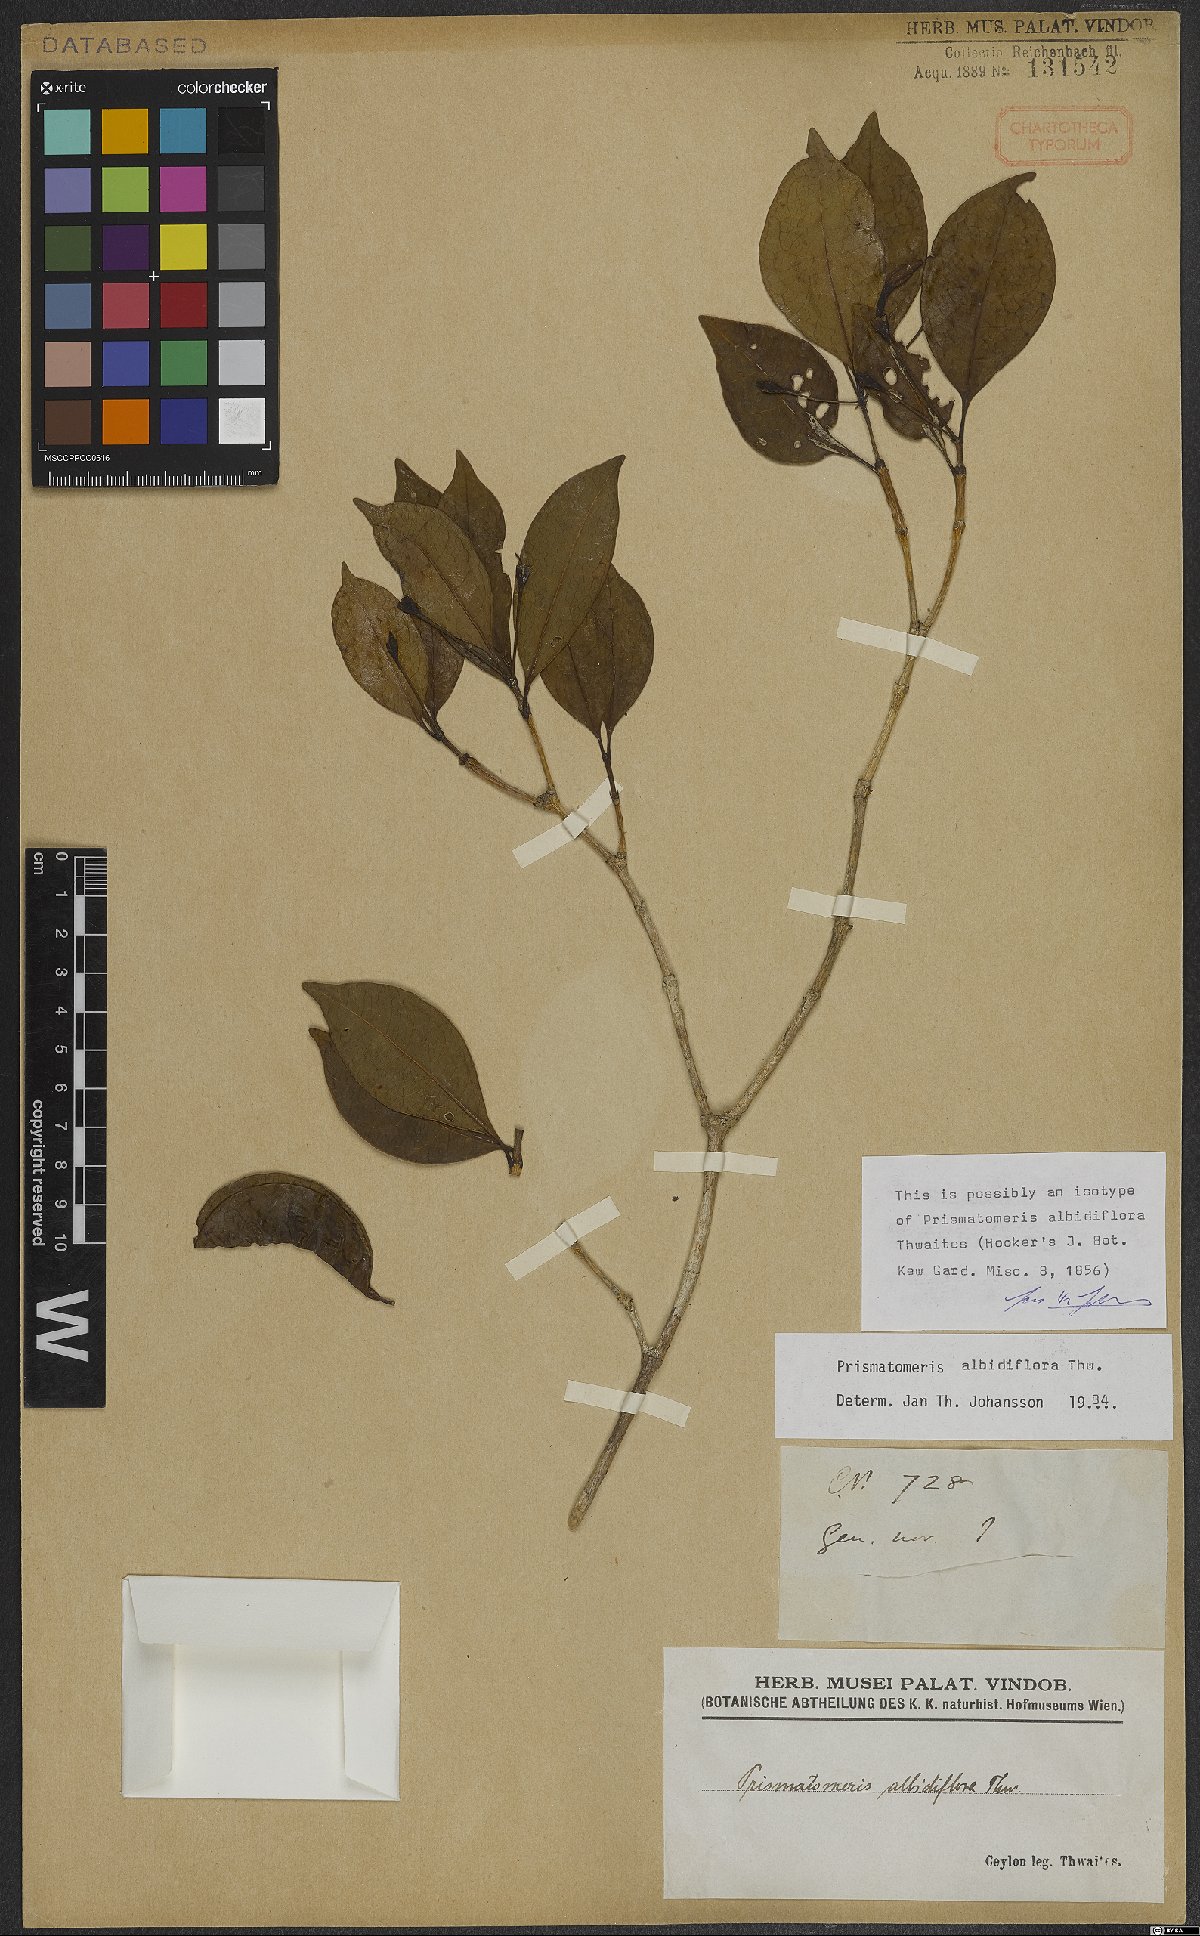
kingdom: Plantae
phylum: Tracheophyta
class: Magnoliopsida
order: Gentianales
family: Rubiaceae
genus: Prismatomeris
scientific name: Prismatomeris albidiflora
